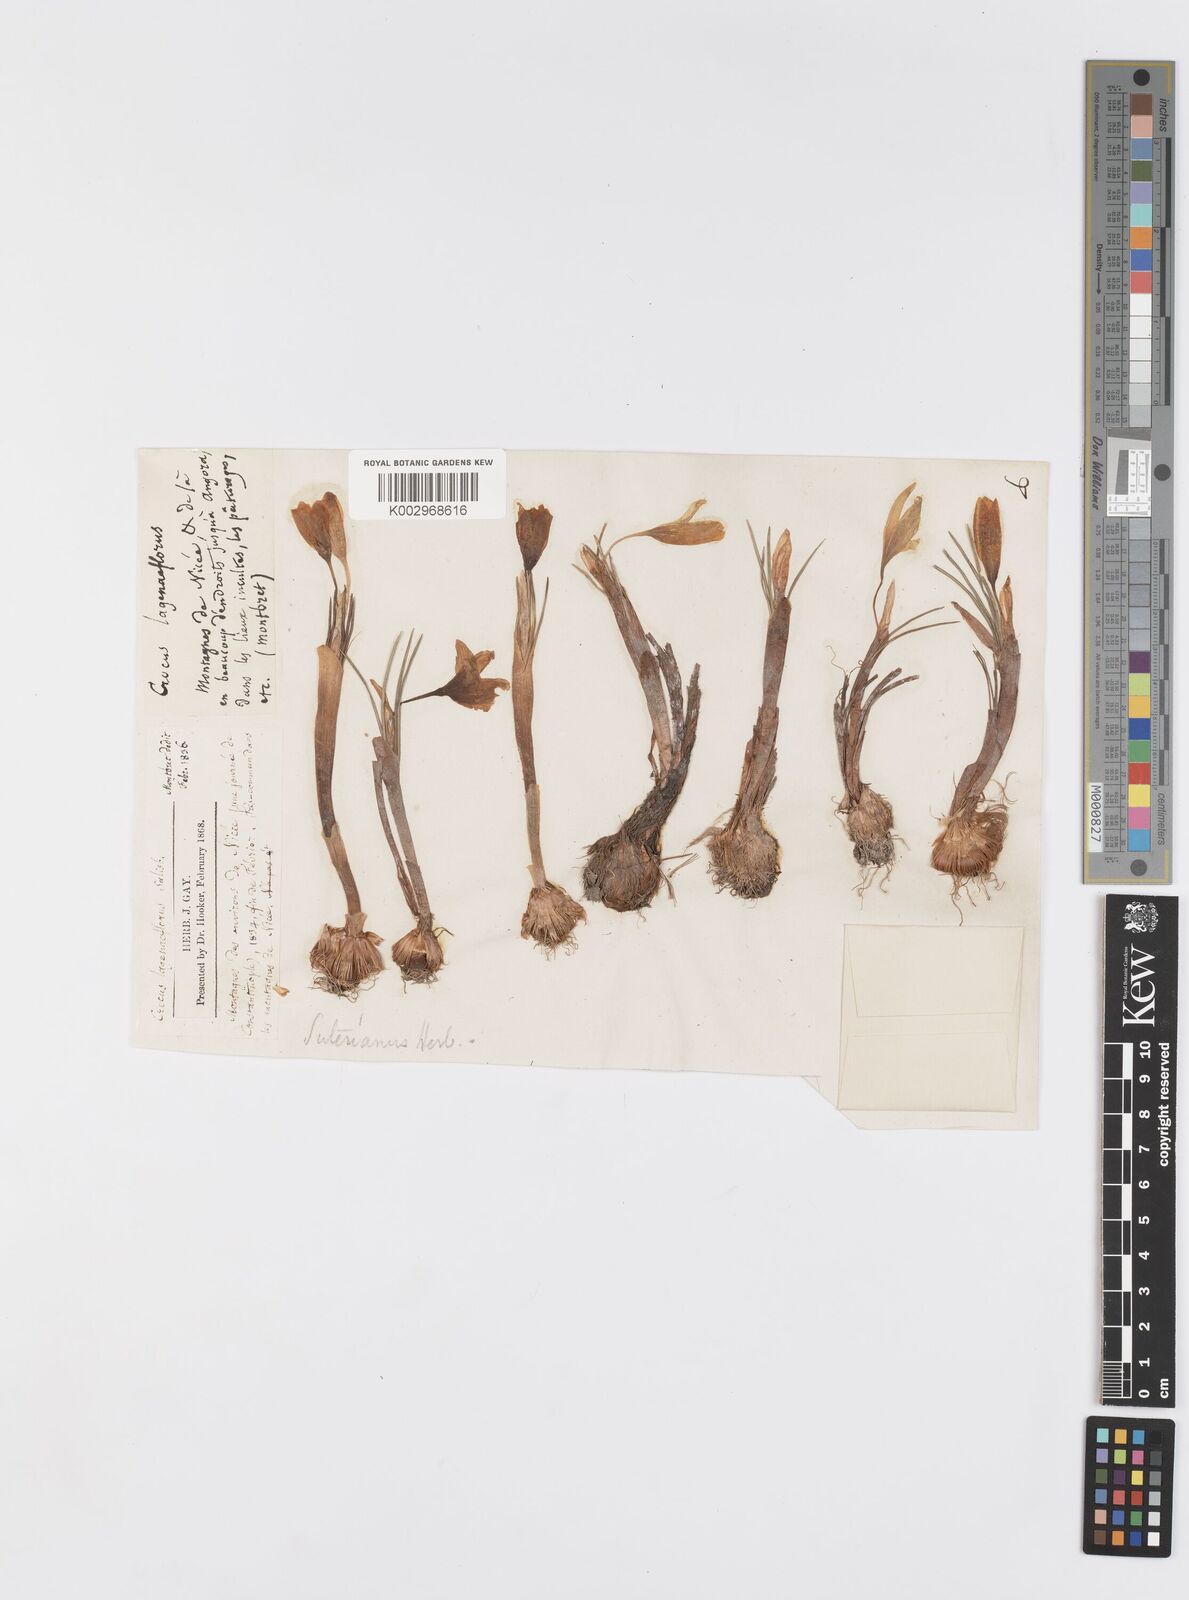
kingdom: Plantae
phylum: Tracheophyta
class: Liliopsida
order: Asparagales
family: Iridaceae
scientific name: Iridaceae
